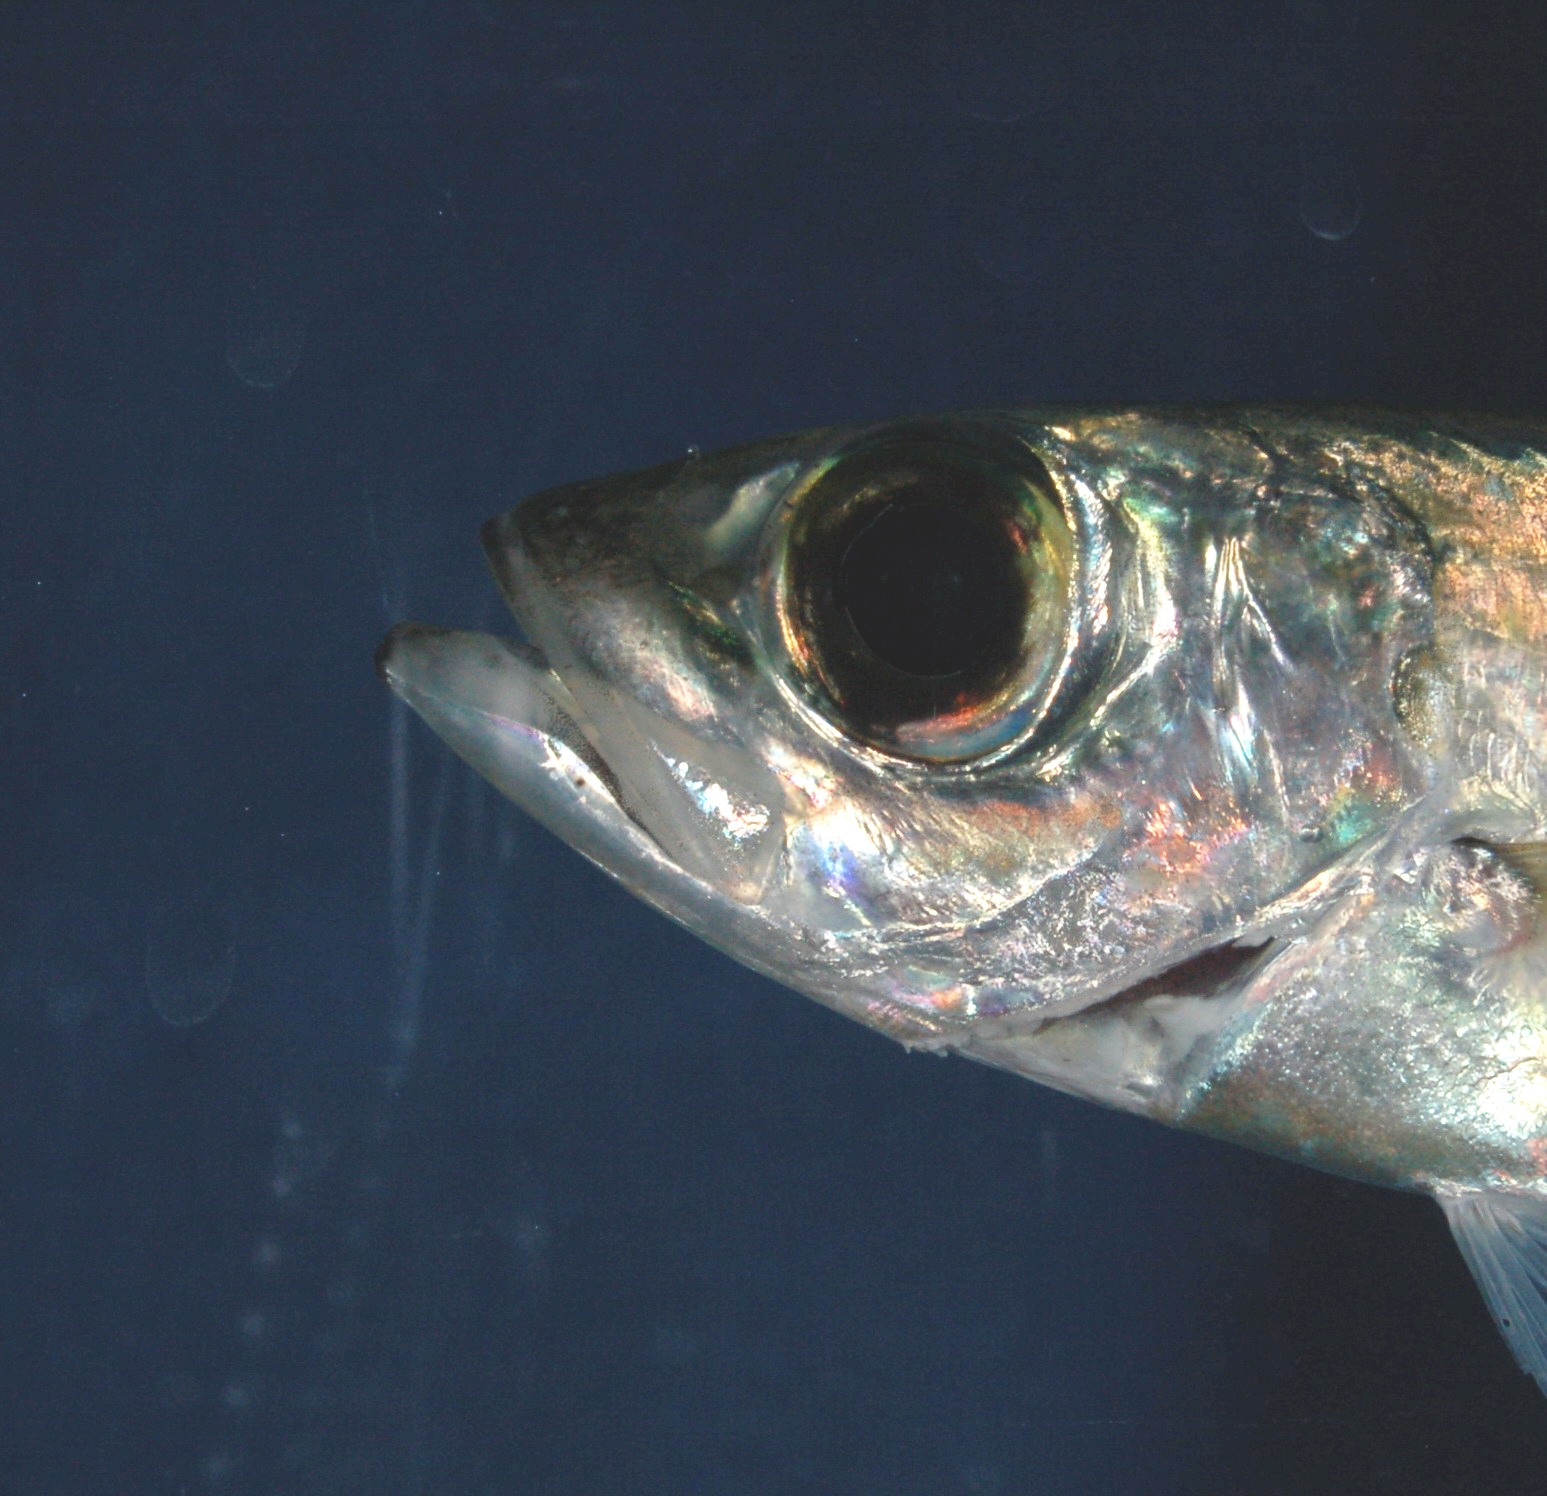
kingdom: Animalia
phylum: Chordata
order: Perciformes
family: Carangidae
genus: Selar
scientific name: Selar crumenophthalmus
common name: Bigeye scad
